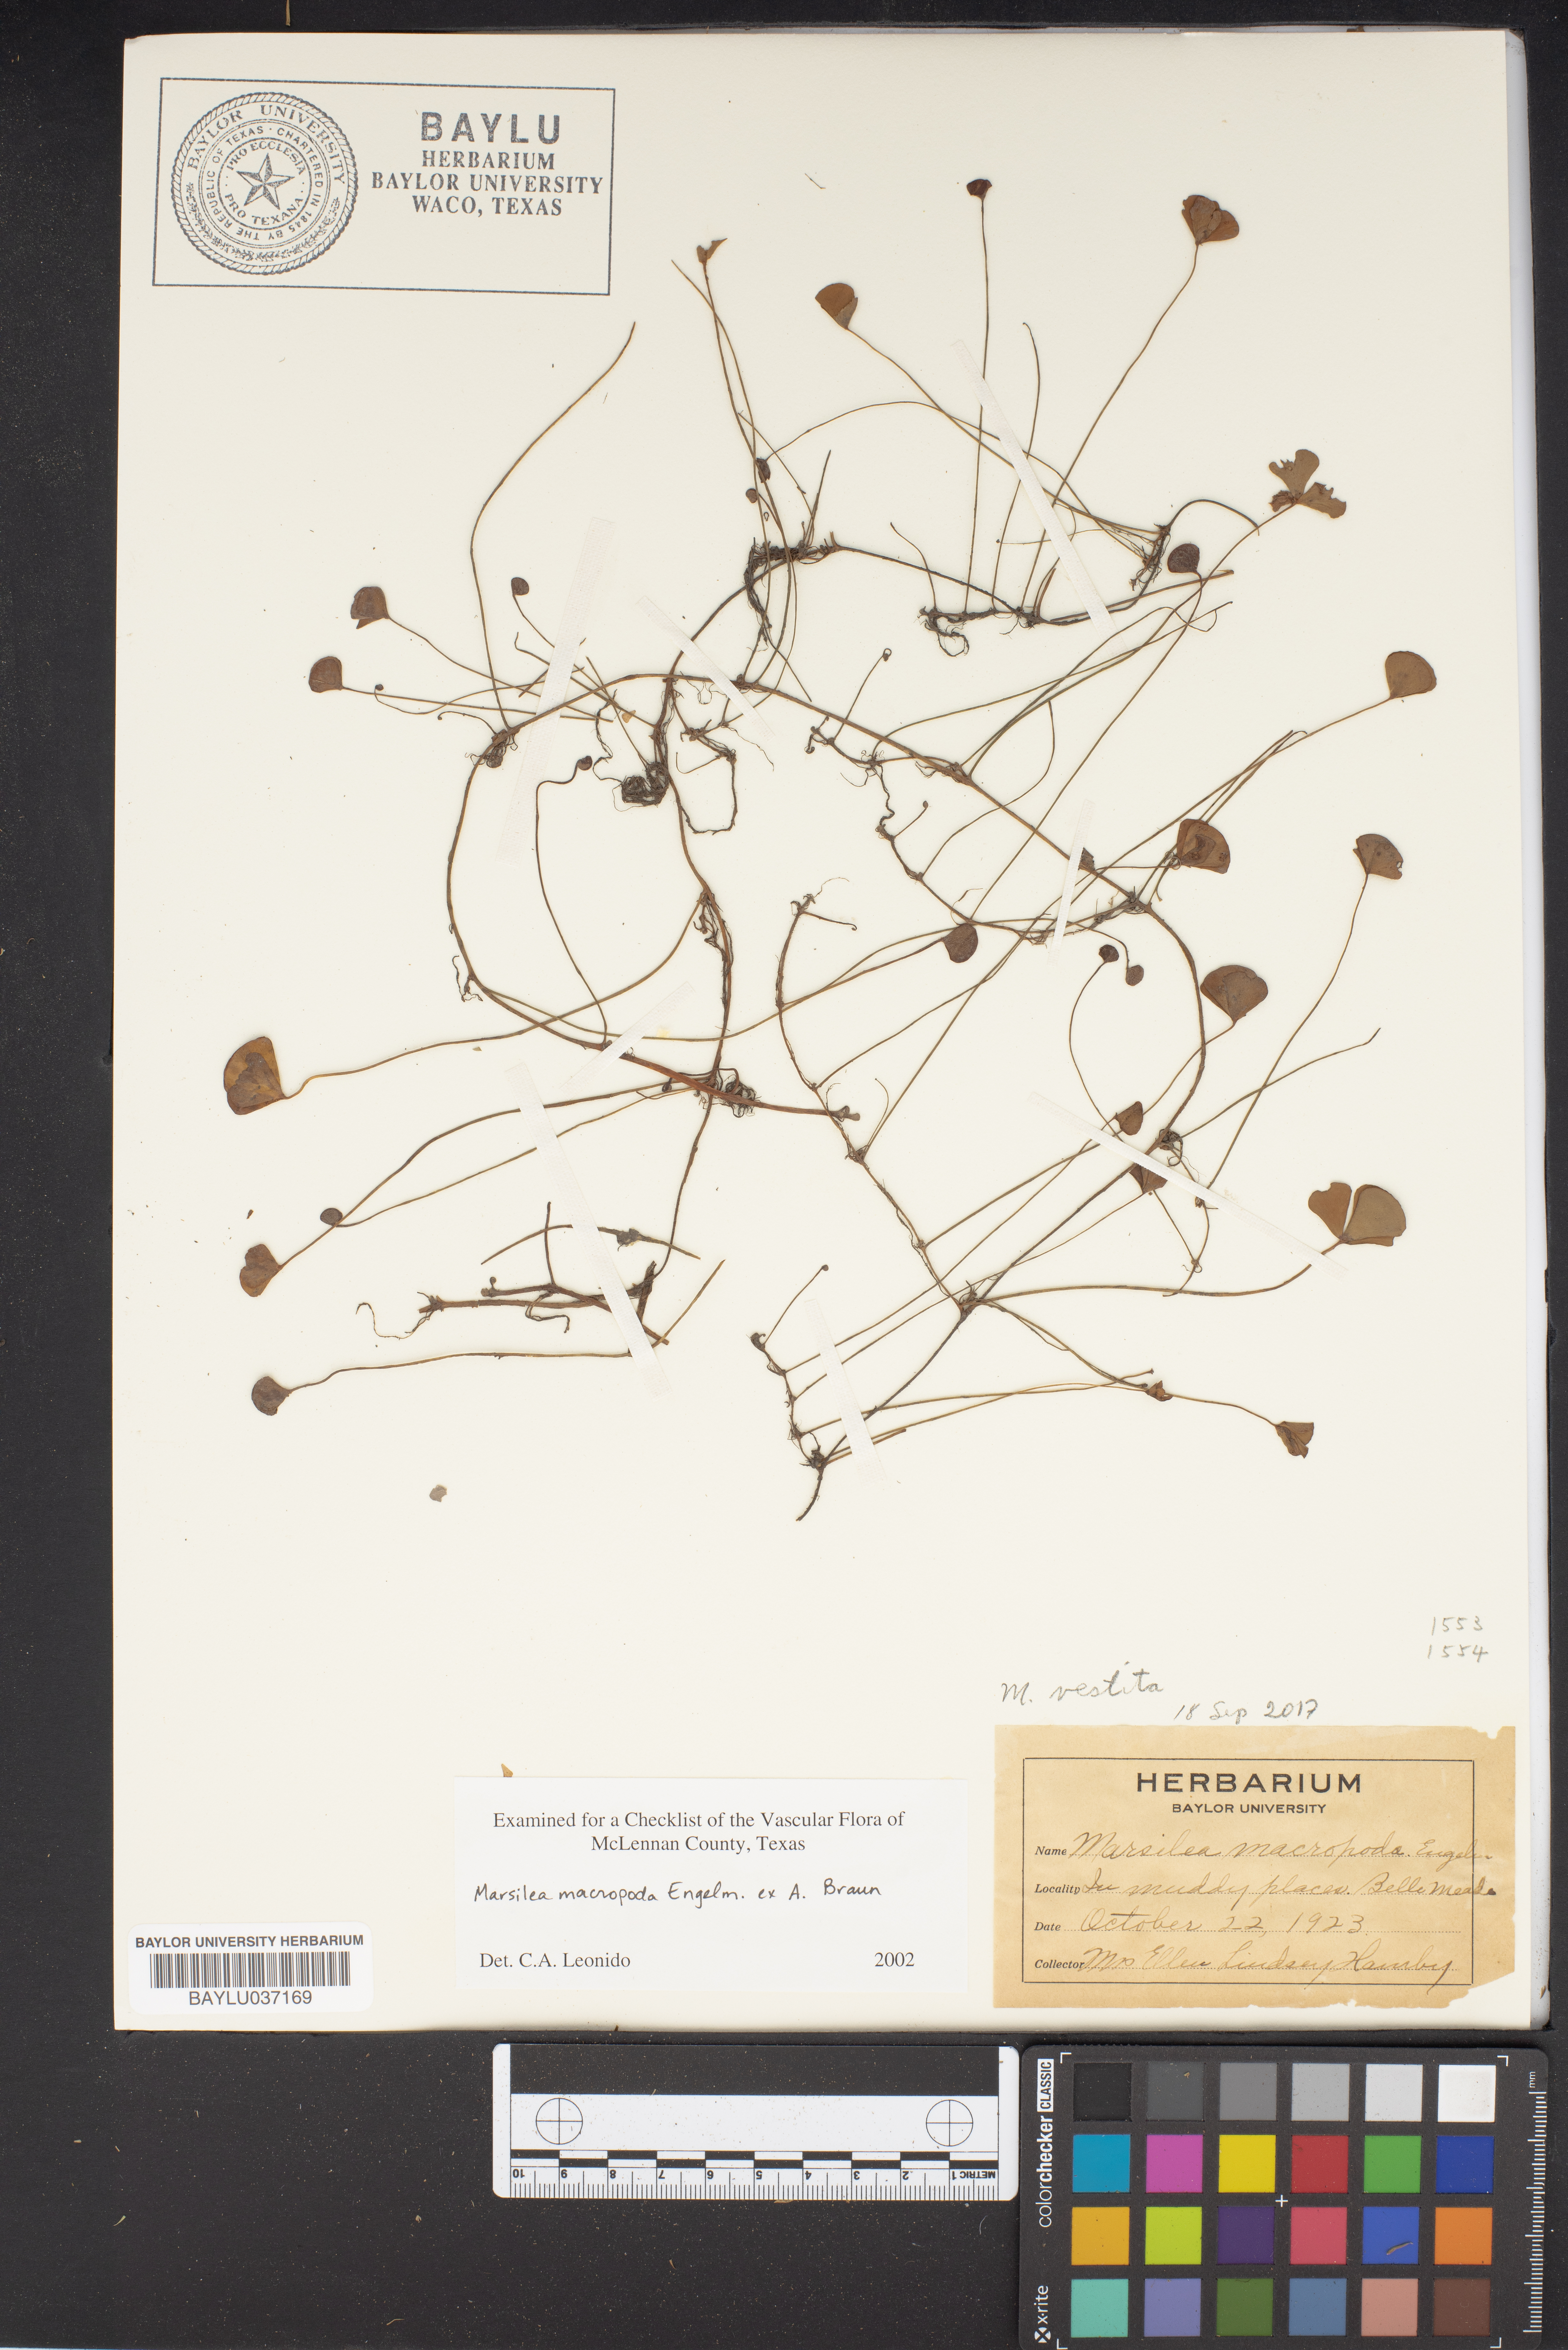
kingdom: Plantae
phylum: Tracheophyta
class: Polypodiopsida
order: Salviniales
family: Marsileaceae
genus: Marsilea
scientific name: Marsilea macropoda
